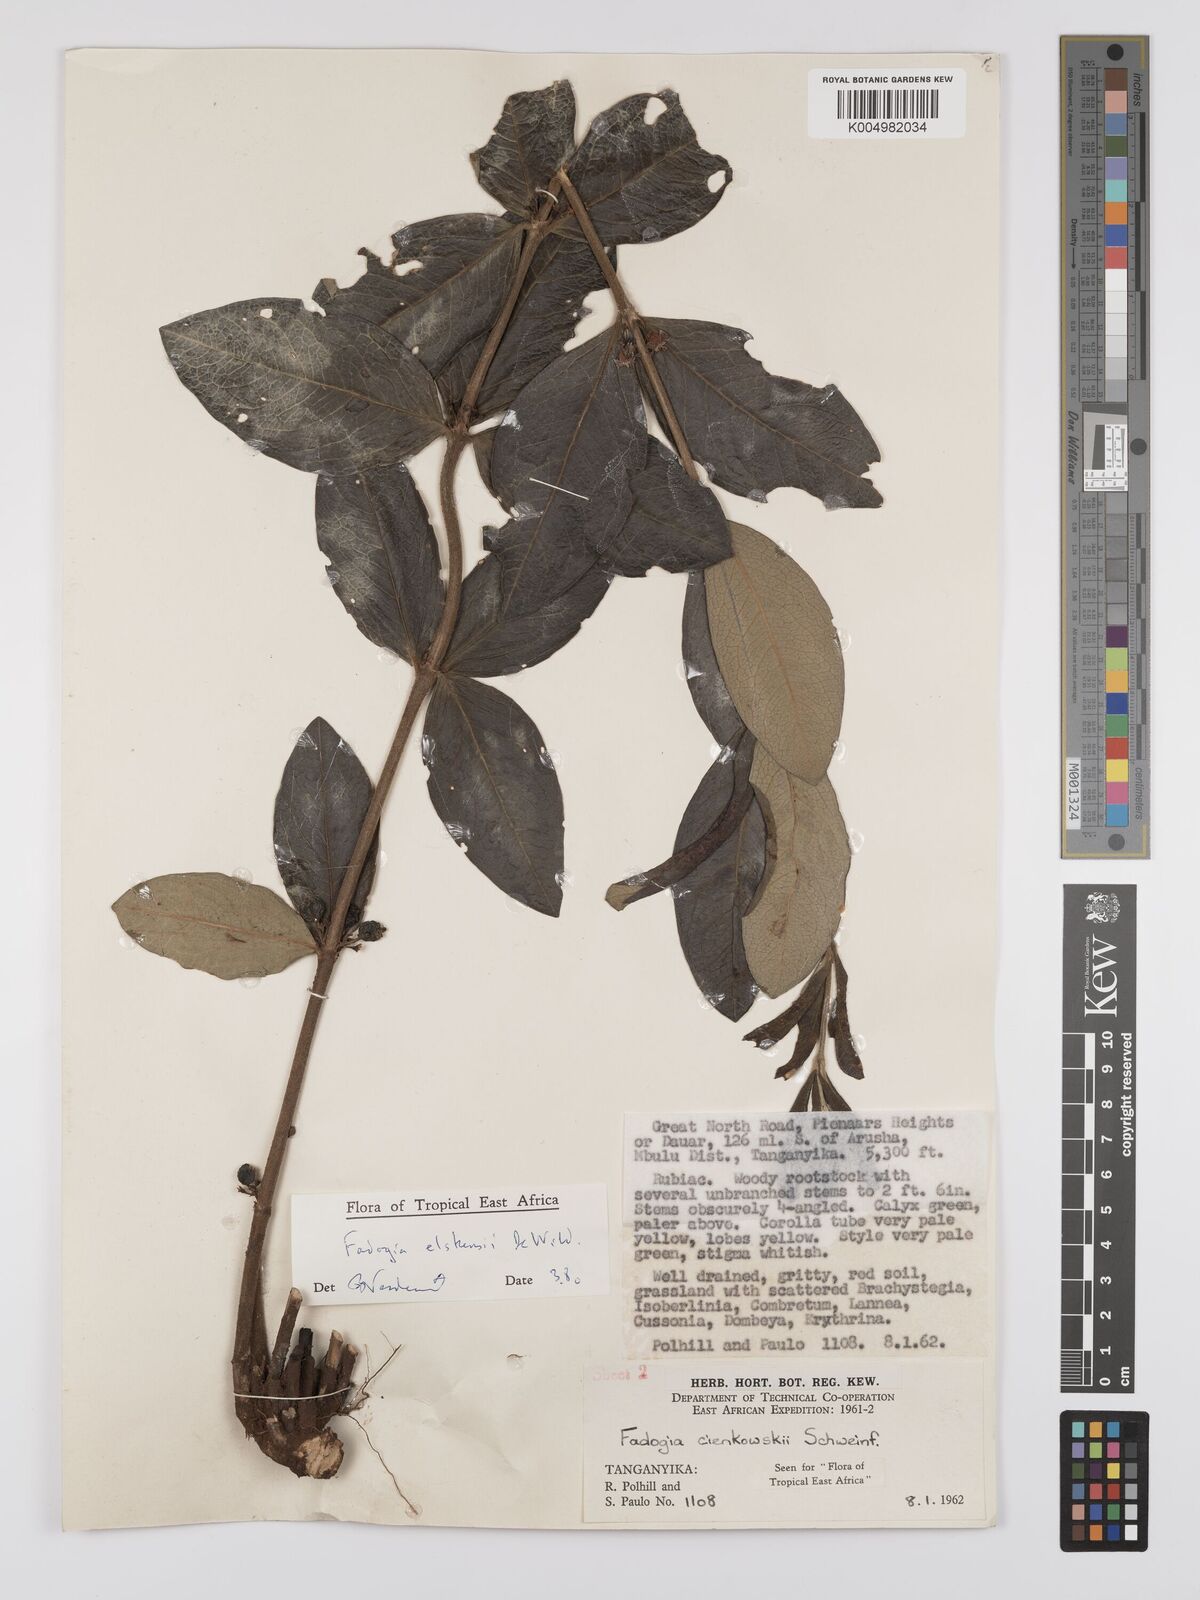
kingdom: Plantae
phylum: Tracheophyta
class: Magnoliopsida
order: Gentianales
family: Rubiaceae
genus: Fadogia
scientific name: Fadogia elskensii
